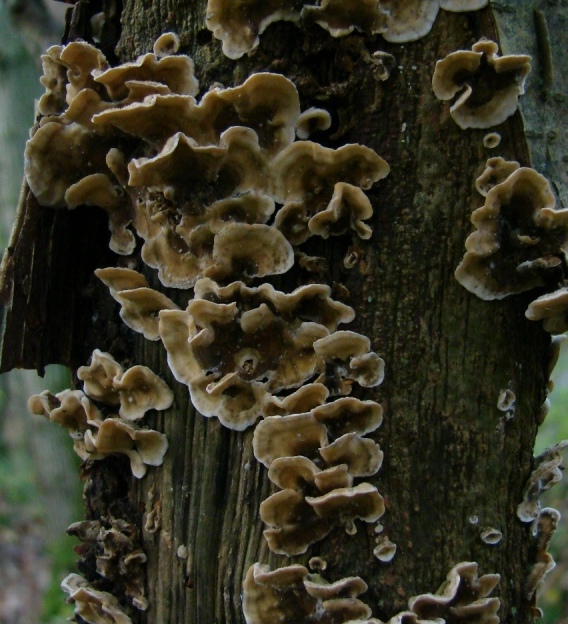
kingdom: Fungi
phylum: Basidiomycota
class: Agaricomycetes
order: Russulales
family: Stereaceae
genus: Stereum
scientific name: Stereum hirsutum
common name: håret lædersvamp
